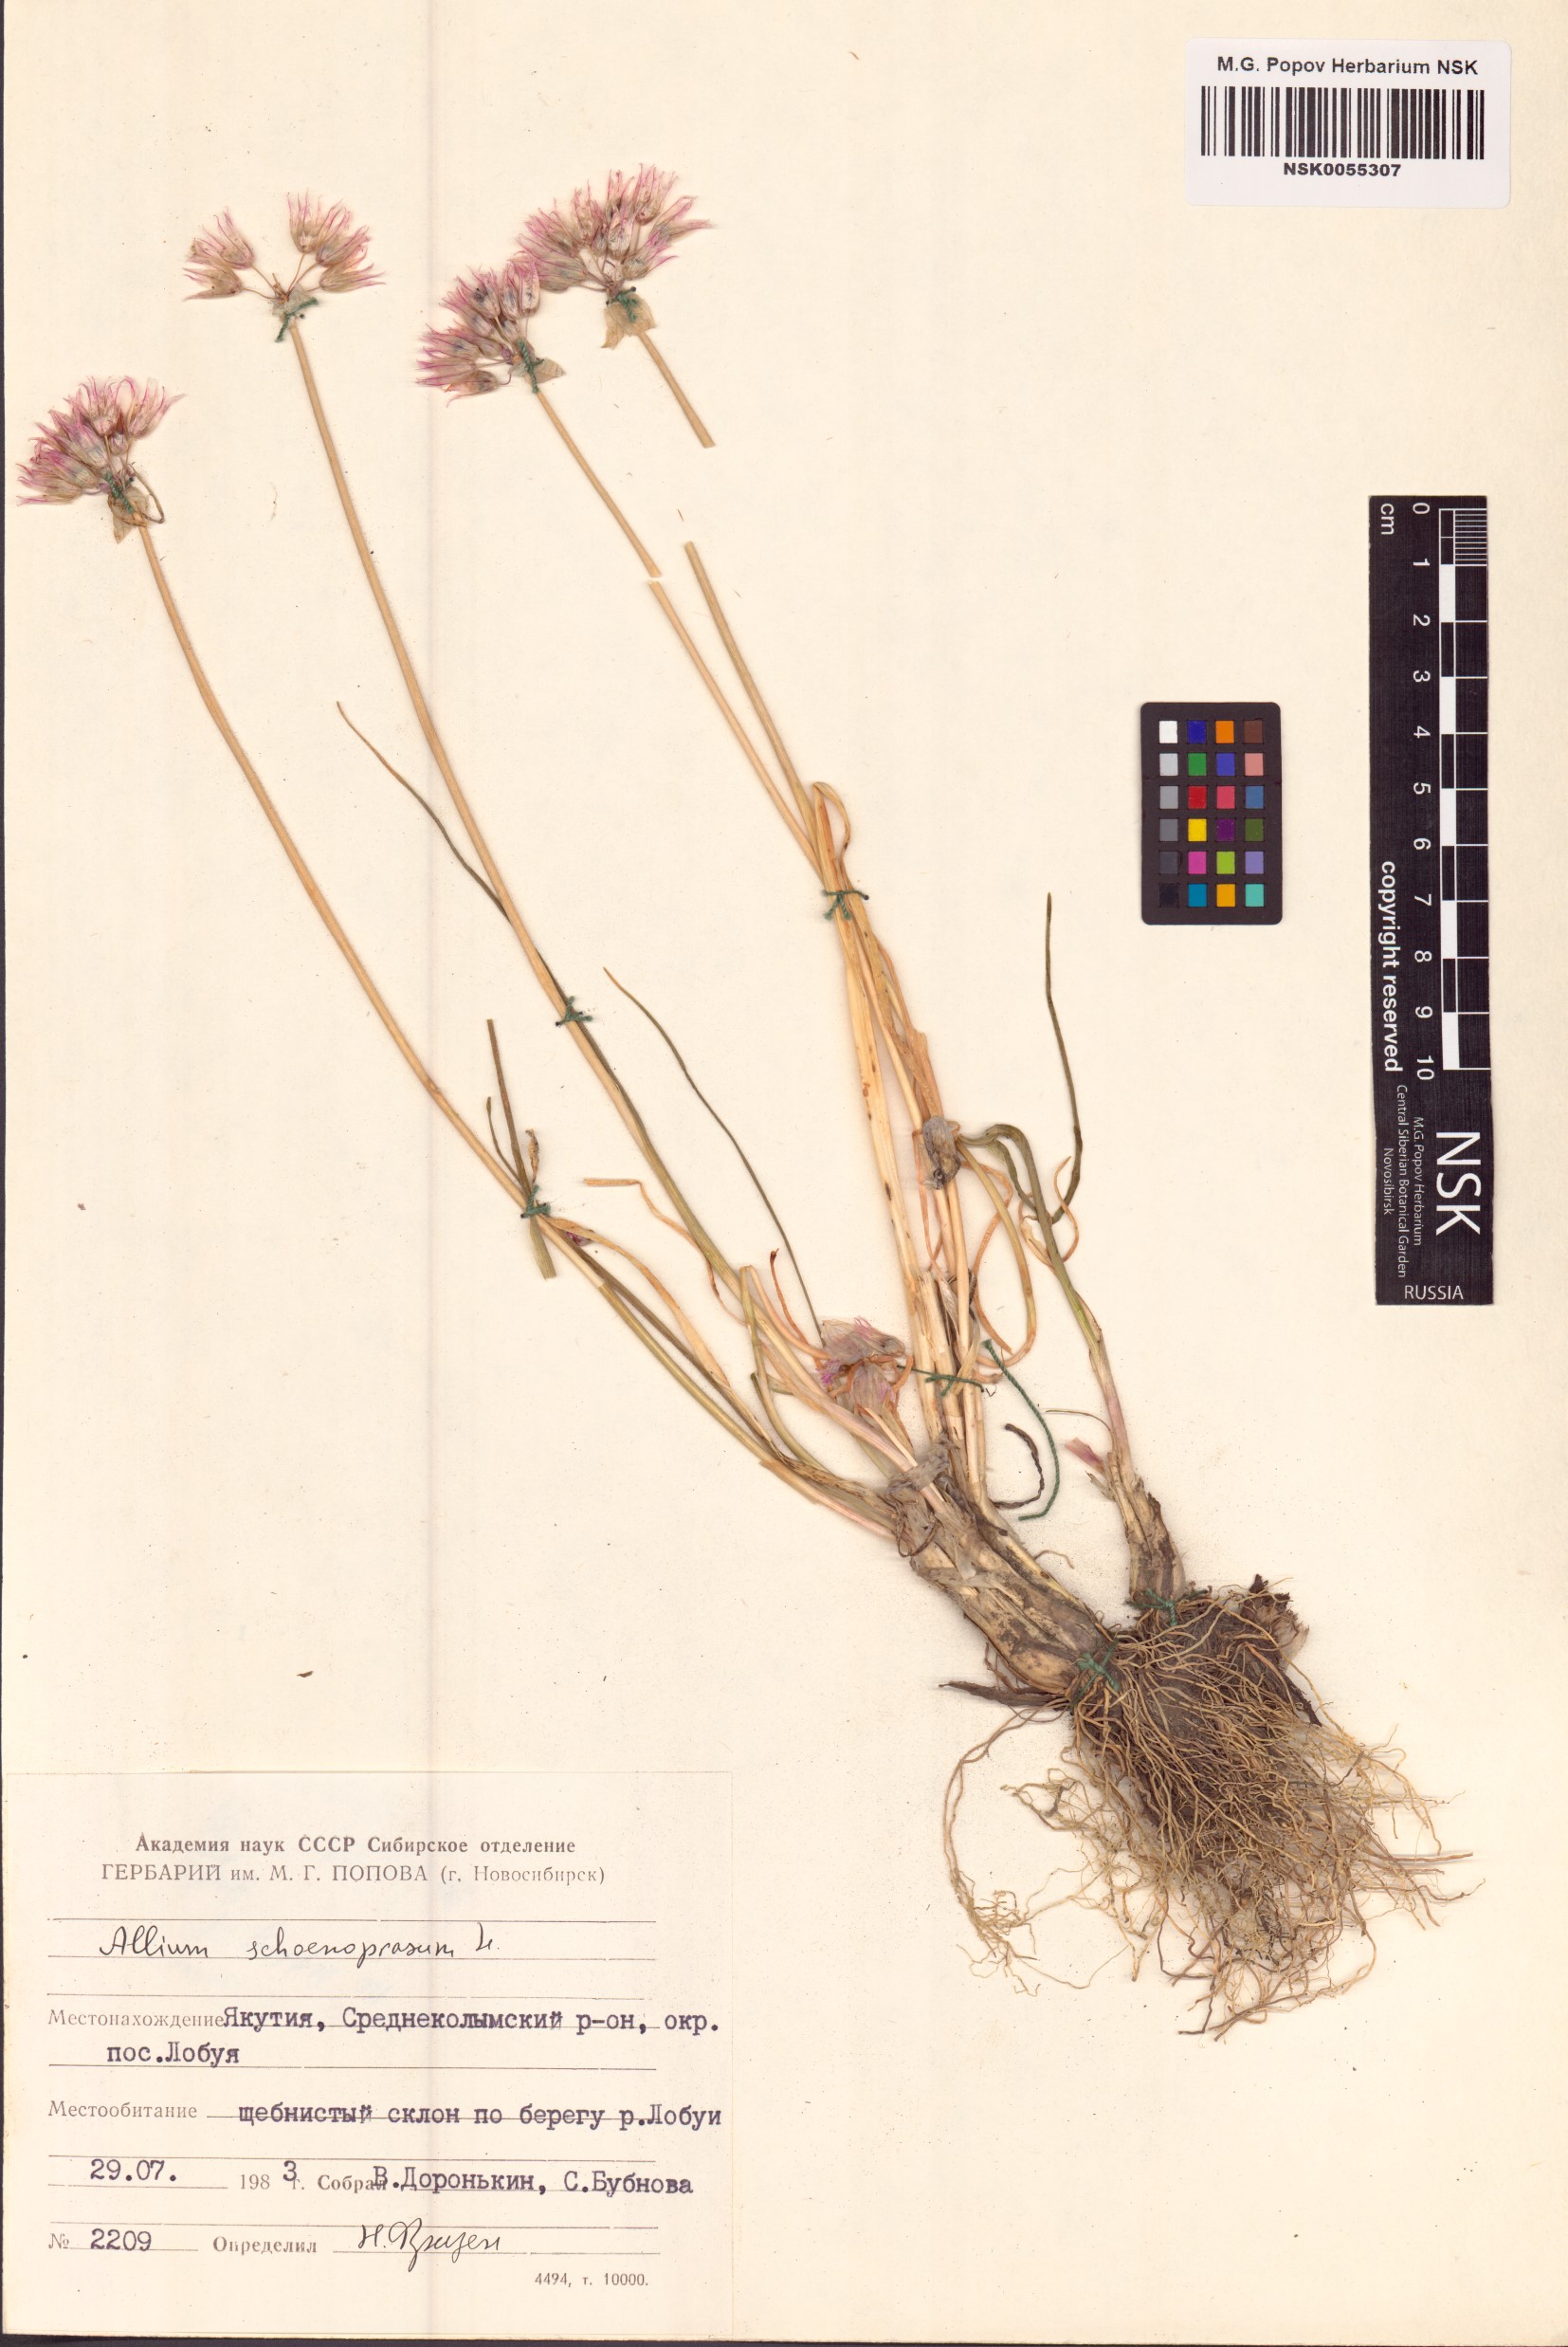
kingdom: Plantae
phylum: Tracheophyta
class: Liliopsida
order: Asparagales
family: Amaryllidaceae
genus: Allium
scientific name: Allium schoenoprasum
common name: Chives
